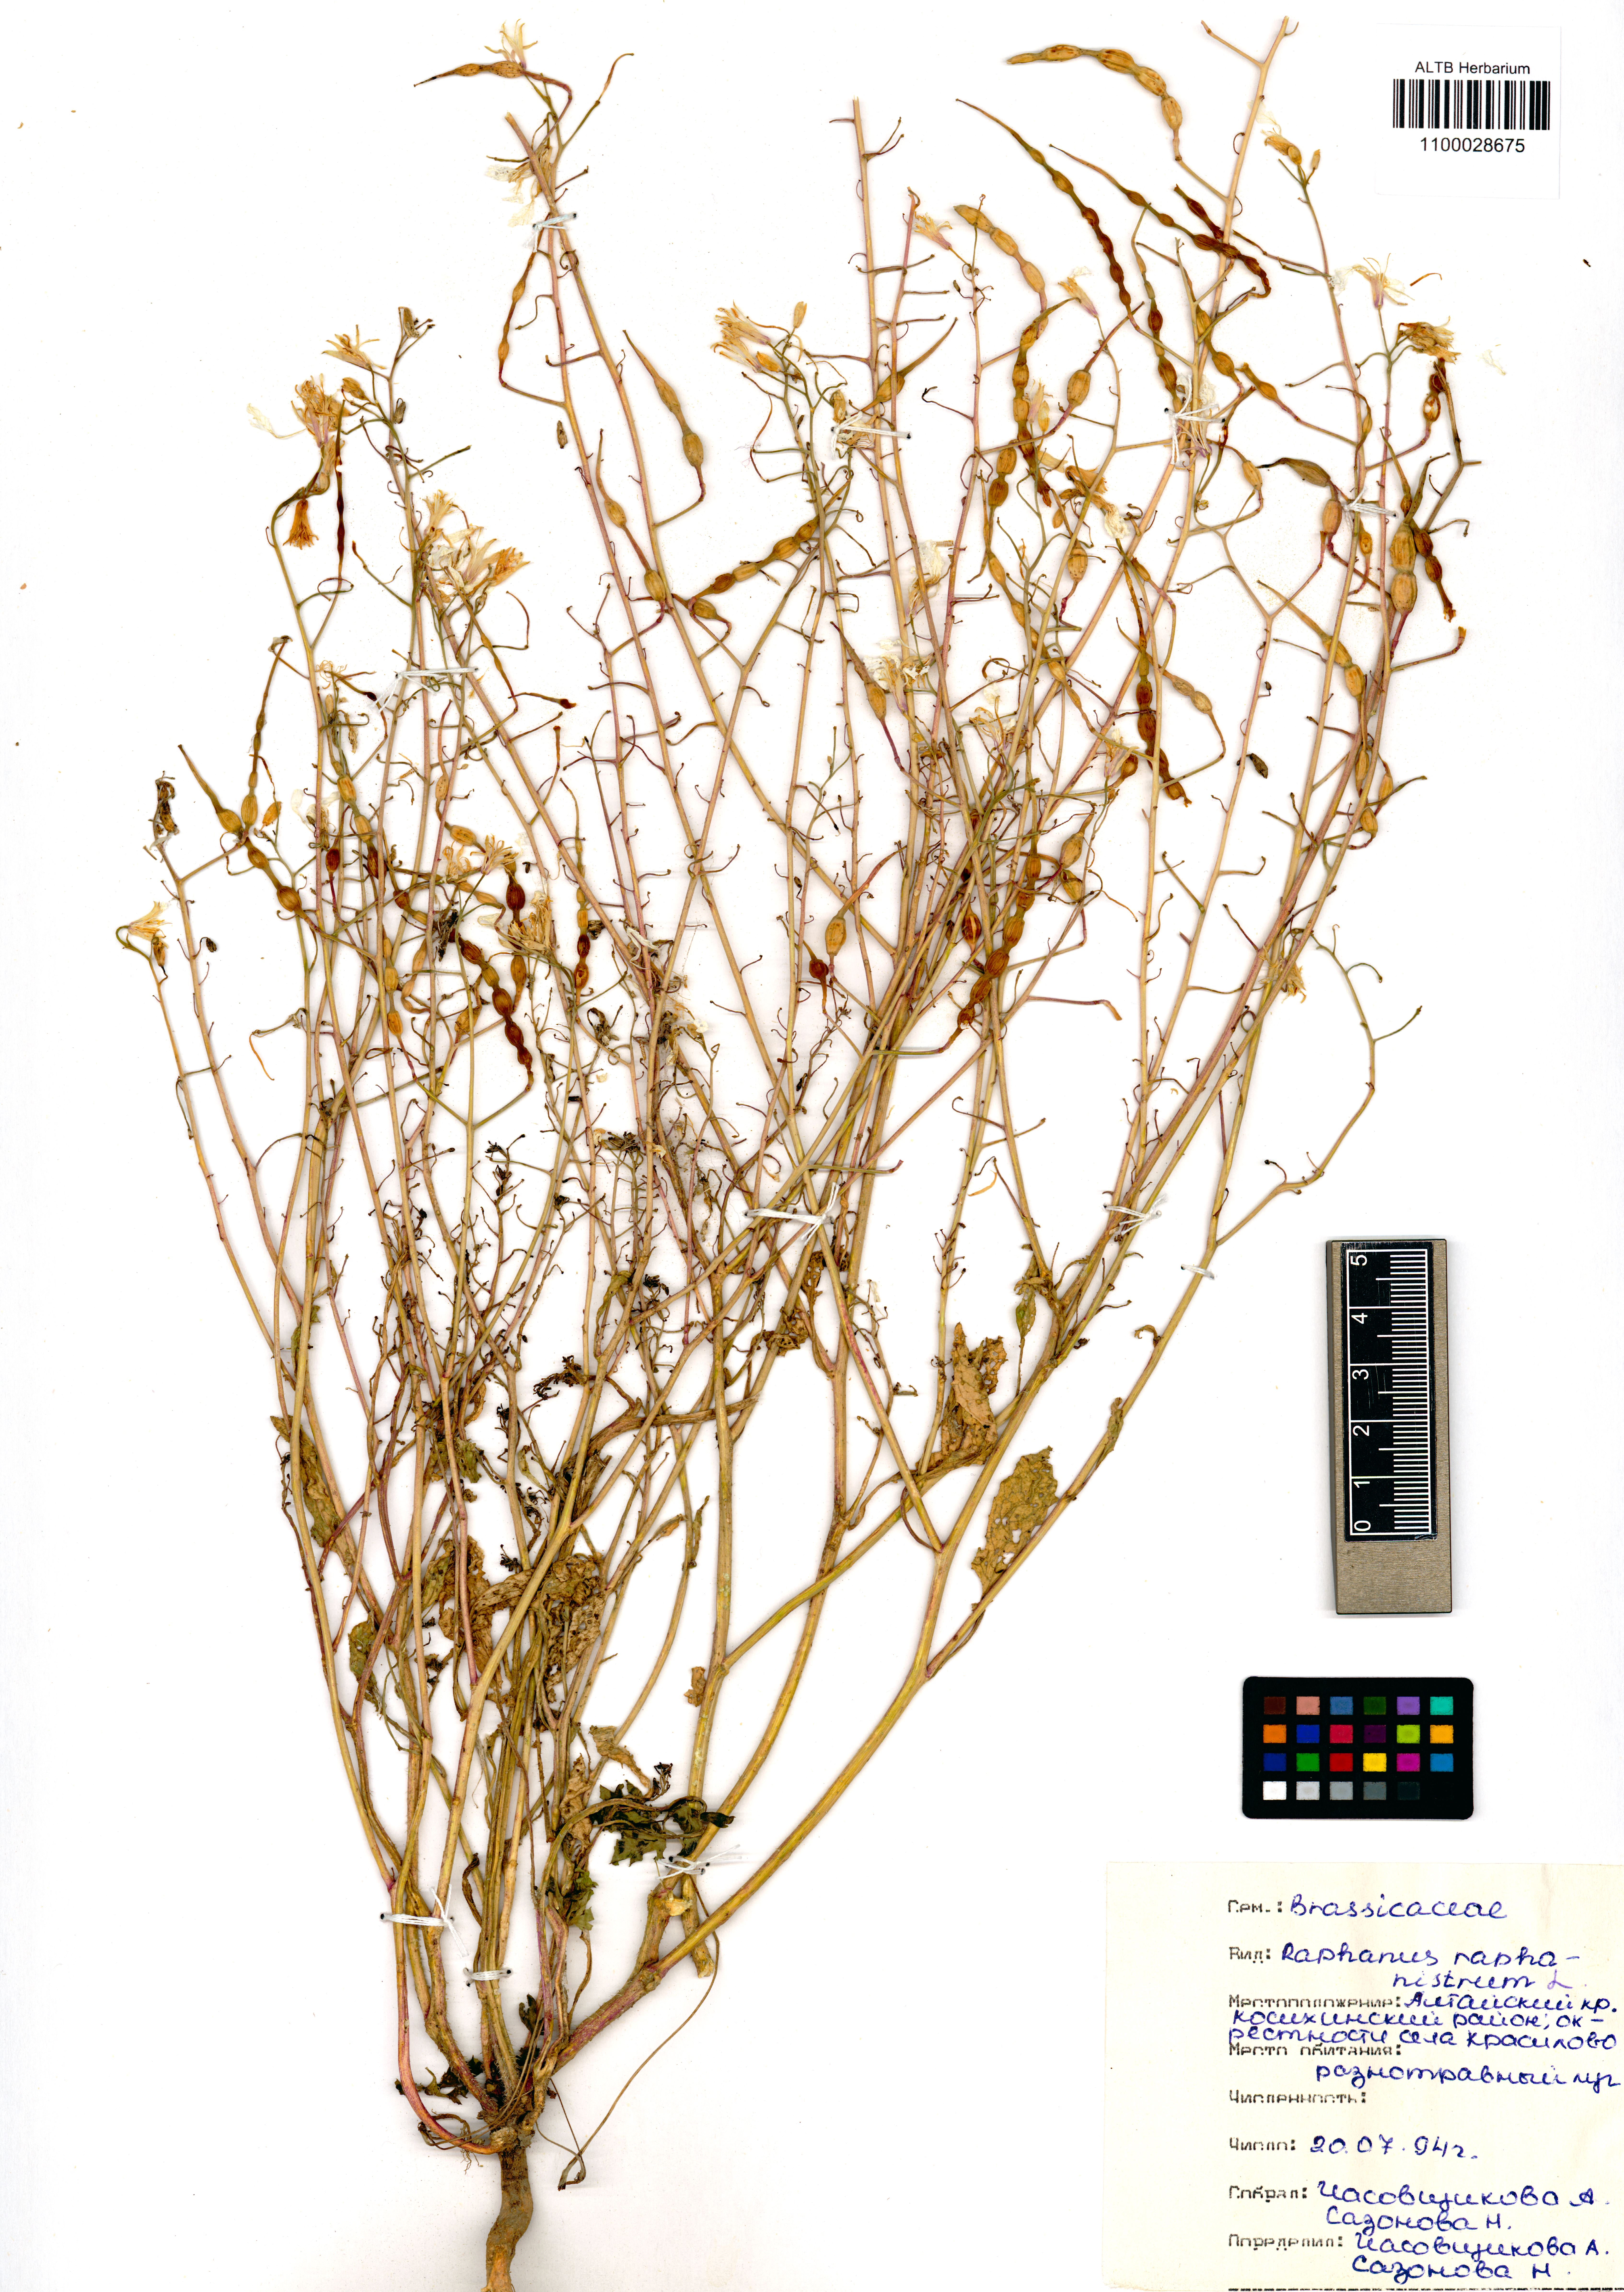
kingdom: Plantae
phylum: Tracheophyta
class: Magnoliopsida
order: Brassicales
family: Brassicaceae
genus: Raphanus
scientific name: Raphanus raphanistrum
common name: Wild radish
